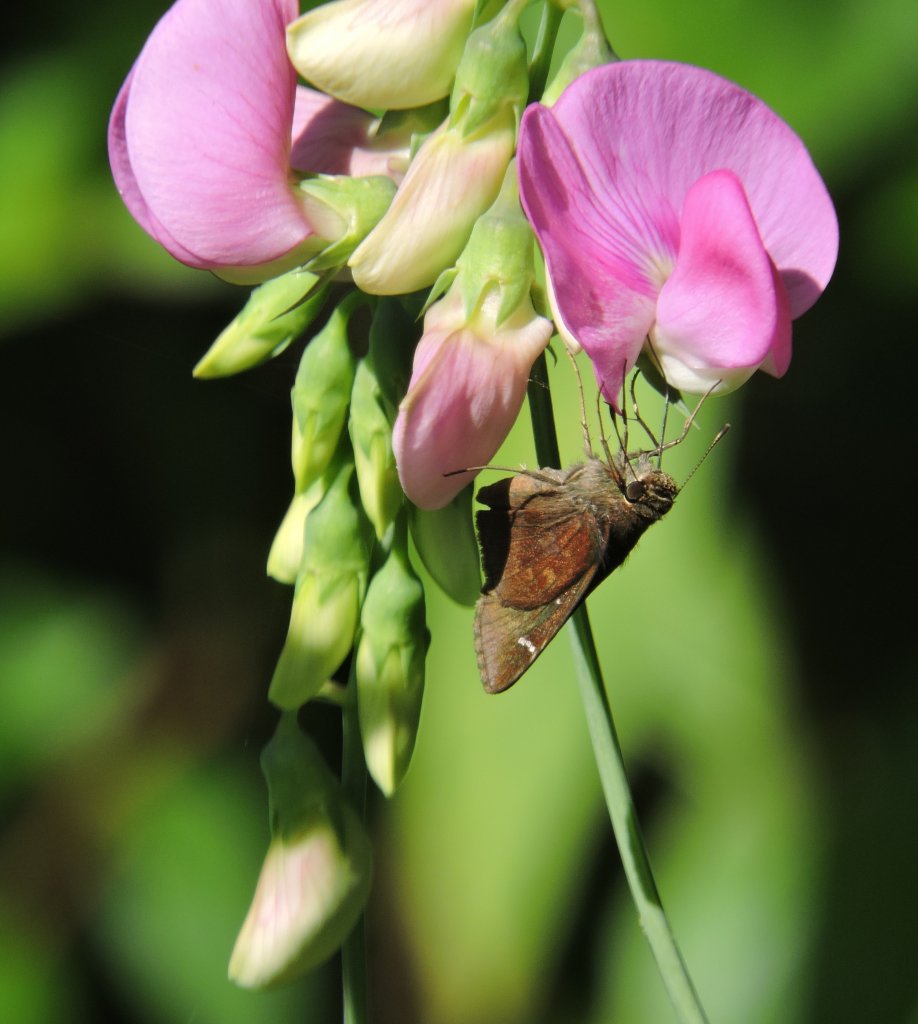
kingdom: Animalia
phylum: Arthropoda
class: Insecta
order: Lepidoptera
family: Hesperiidae
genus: Lerema
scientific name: Lerema accius
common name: Clouded Skipper
